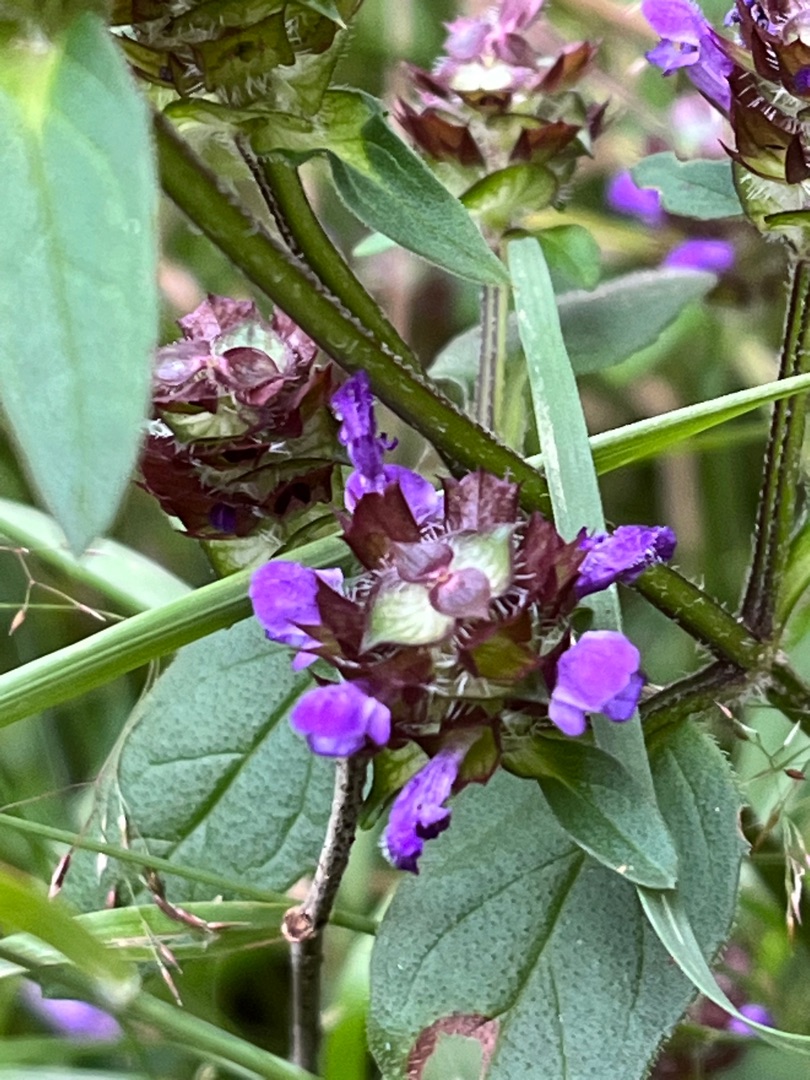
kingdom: Plantae
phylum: Tracheophyta
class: Magnoliopsida
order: Lamiales
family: Lamiaceae
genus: Prunella
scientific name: Prunella vulgaris
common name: Almindelig brunelle
